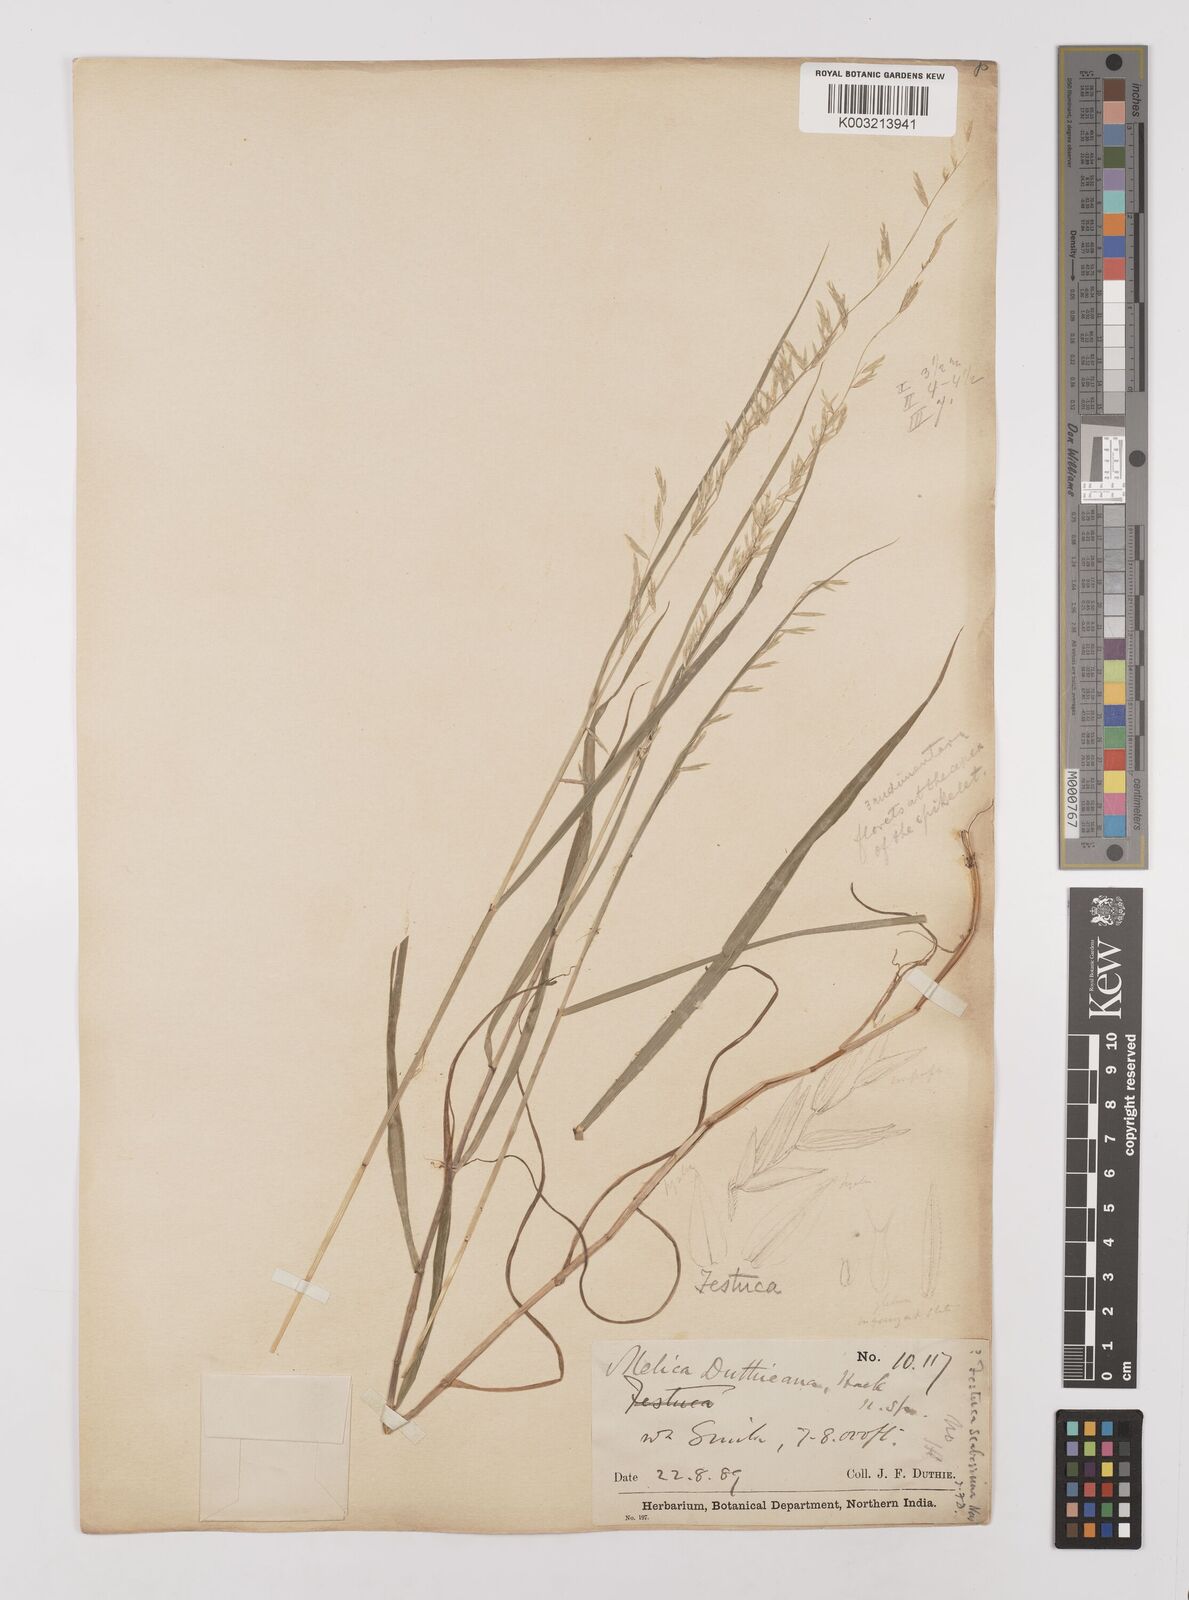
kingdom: Plantae
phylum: Tracheophyta
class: Liliopsida
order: Poales
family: Poaceae
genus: Melica
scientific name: Melica scaberrima
